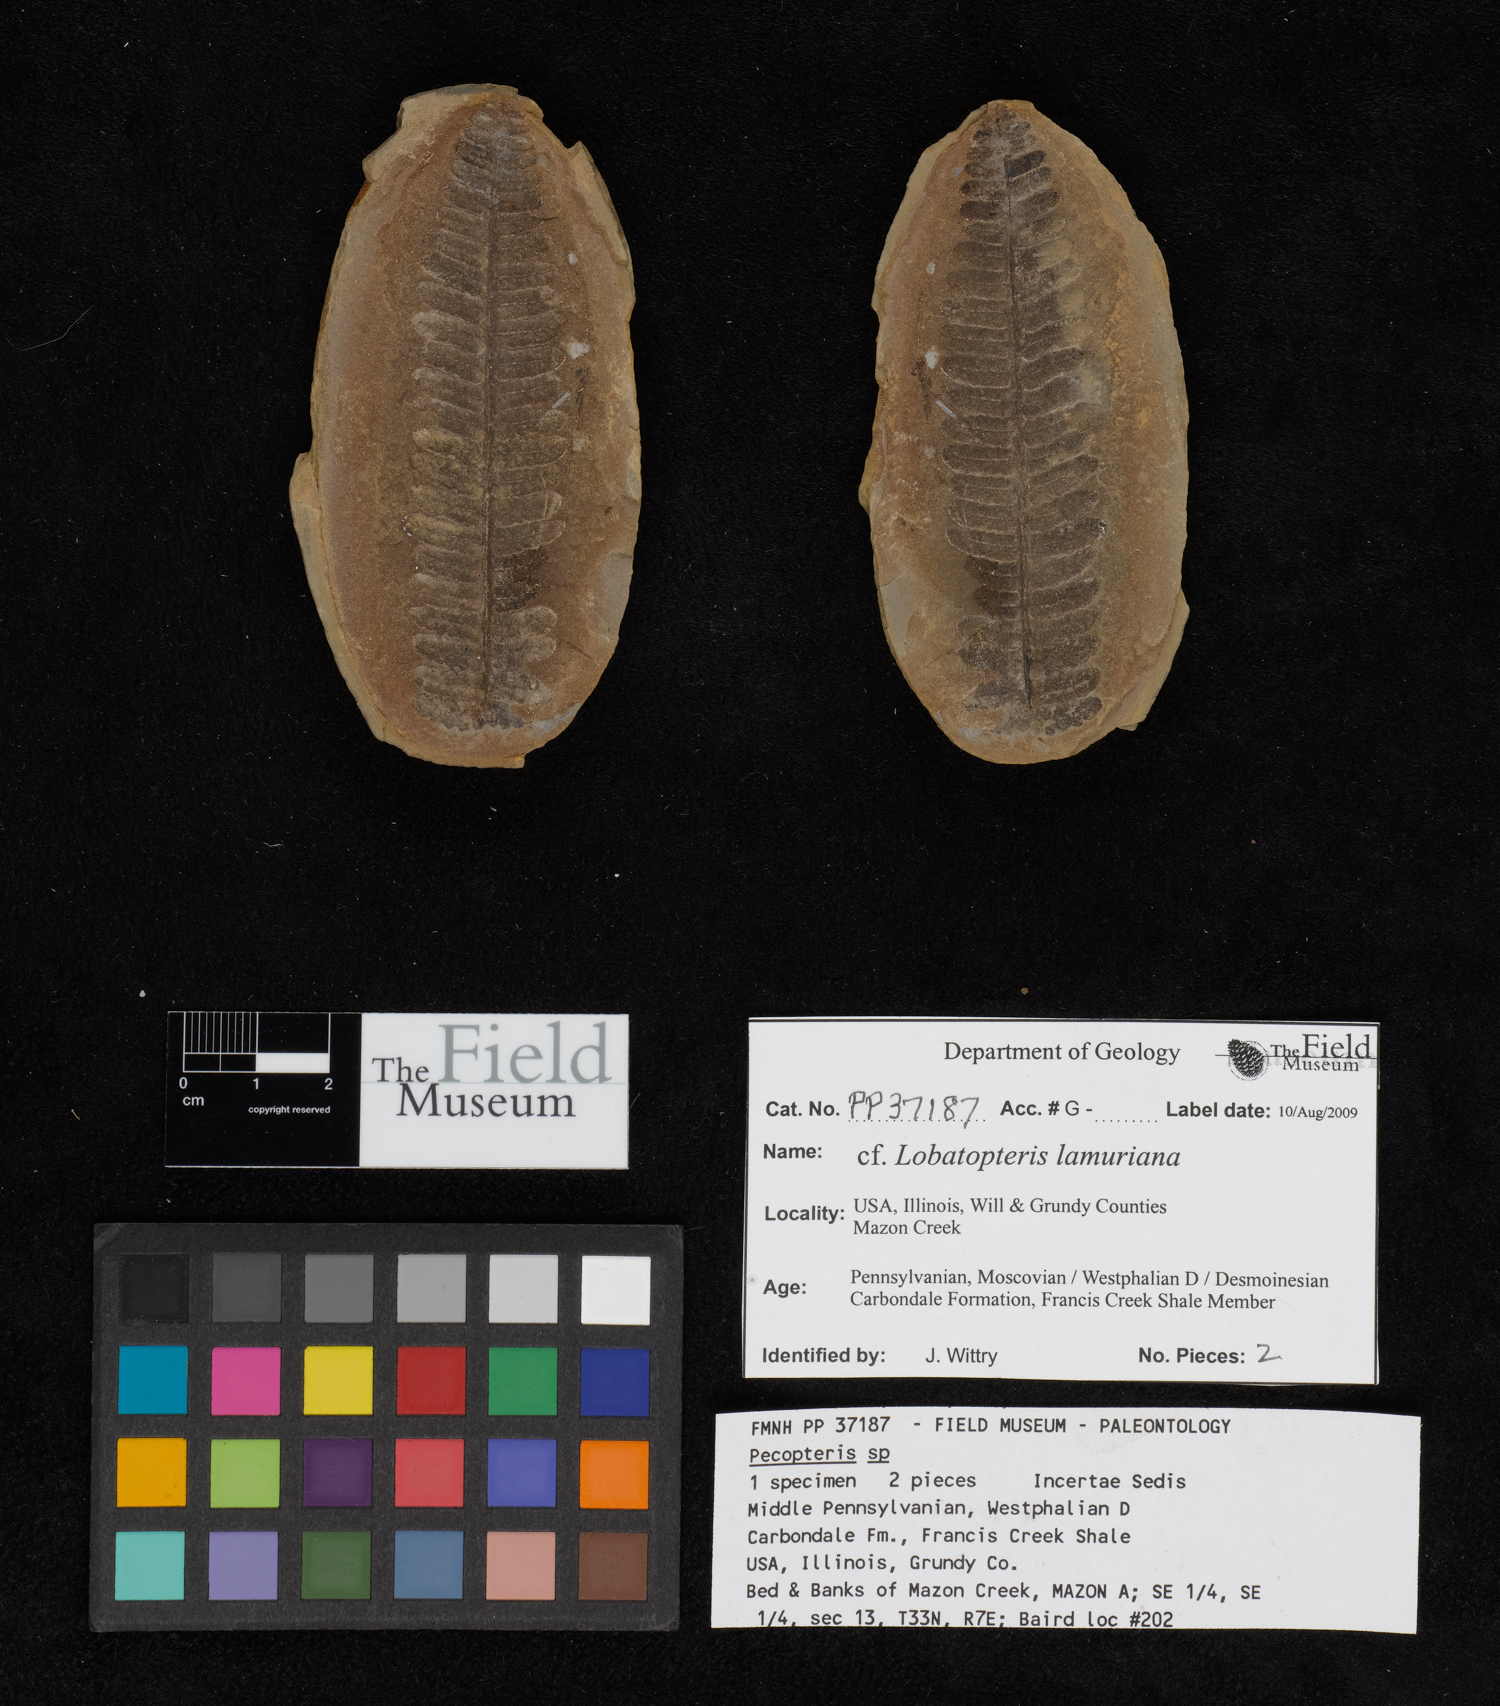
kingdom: Plantae
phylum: Tracheophyta
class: Polypodiopsida
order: Marattiales
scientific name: Marattiales
